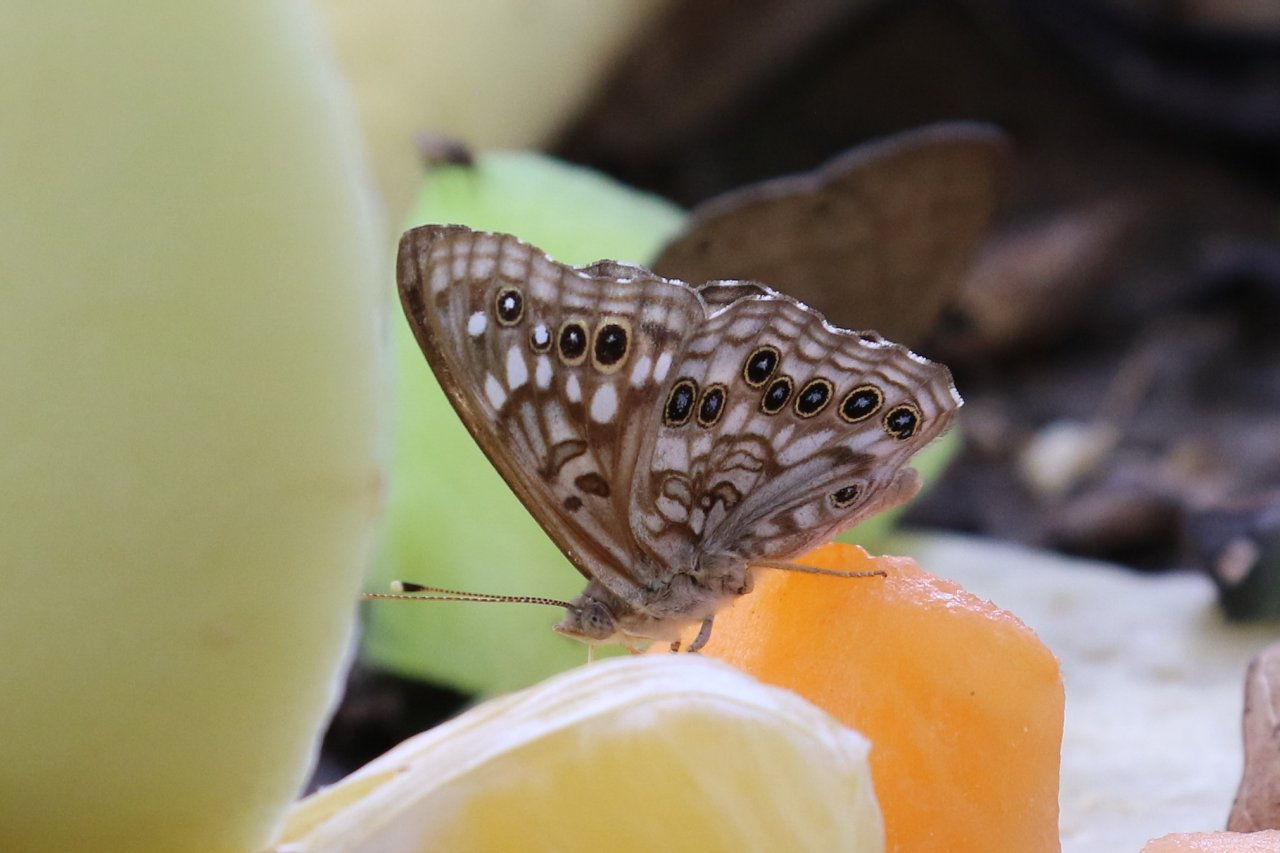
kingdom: Animalia
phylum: Arthropoda
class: Insecta
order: Lepidoptera
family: Nymphalidae
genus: Asterocampa
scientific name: Asterocampa celtis
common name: Hackberry Emperor
